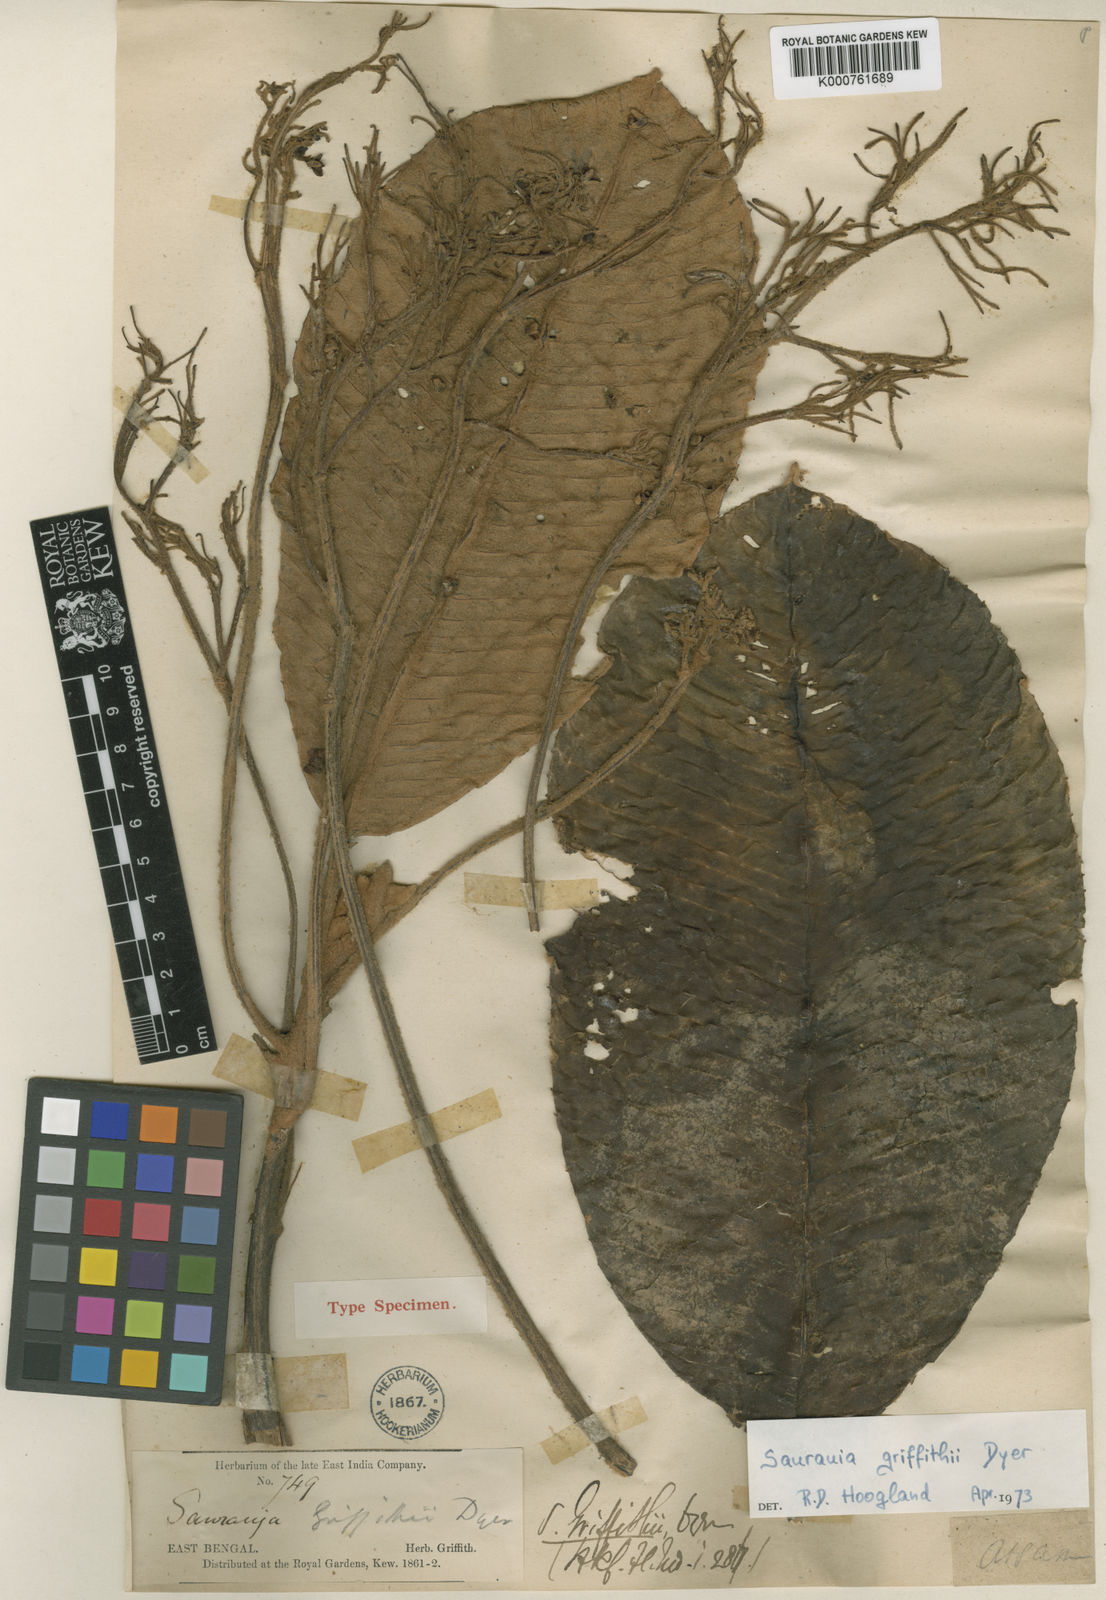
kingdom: Plantae
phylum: Tracheophyta
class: Magnoliopsida
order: Ericales
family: Actinidiaceae
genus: Saurauia
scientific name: Saurauia griffithii
